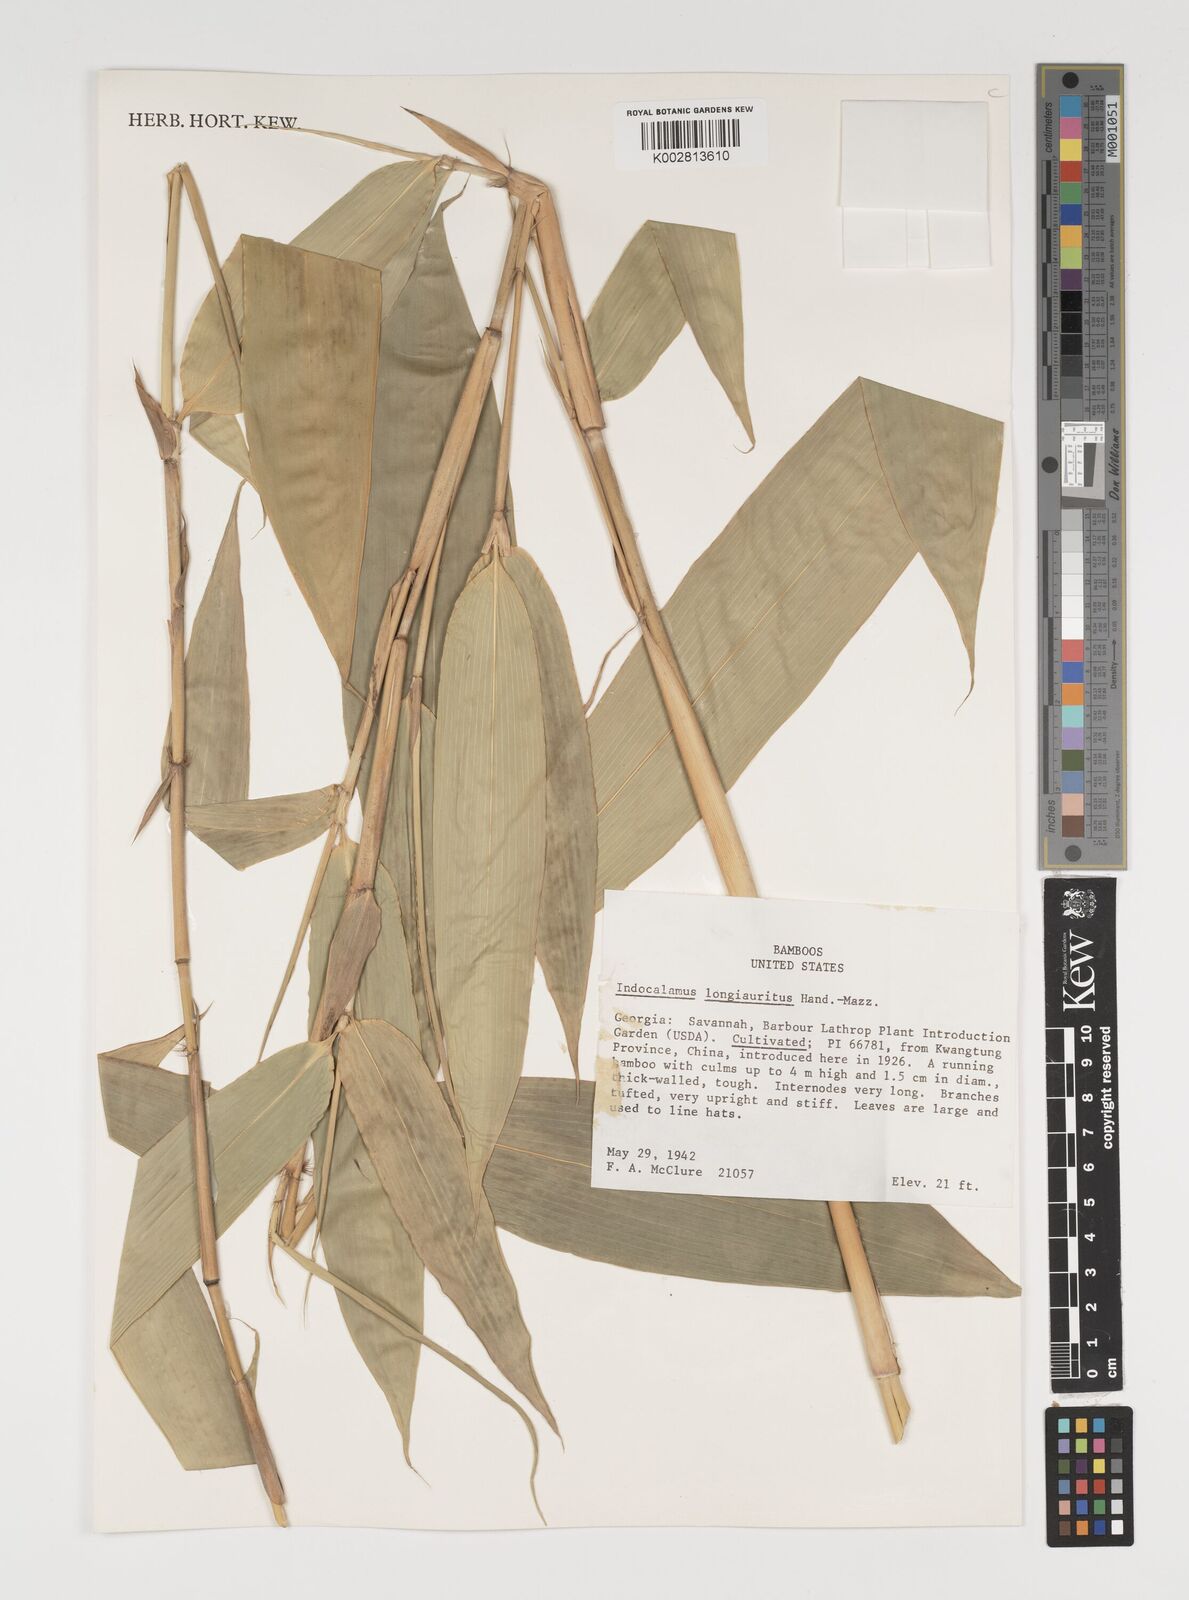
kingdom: Plantae
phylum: Tracheophyta
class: Liliopsida
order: Poales
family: Poaceae
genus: Indocalamus
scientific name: Indocalamus longiauritus
